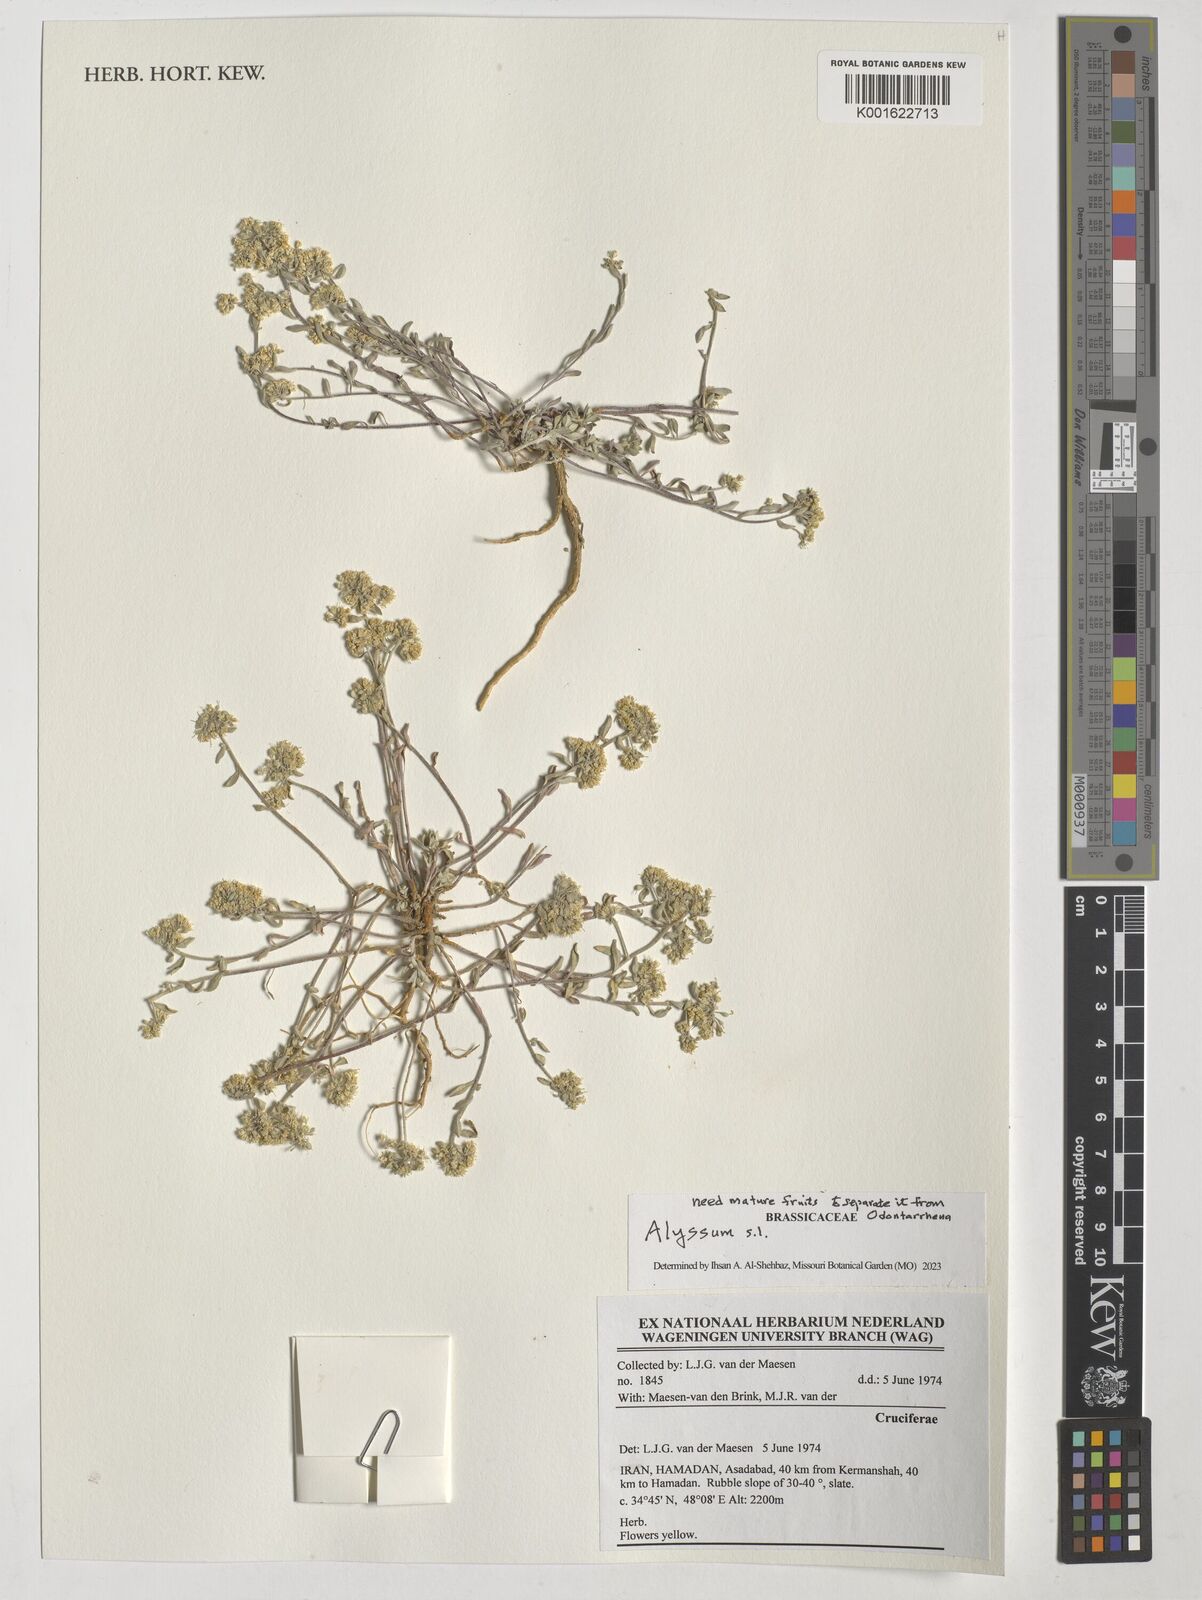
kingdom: Plantae
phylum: Tracheophyta
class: Magnoliopsida
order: Brassicales
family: Brassicaceae
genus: Alyssum
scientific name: Alyssum
